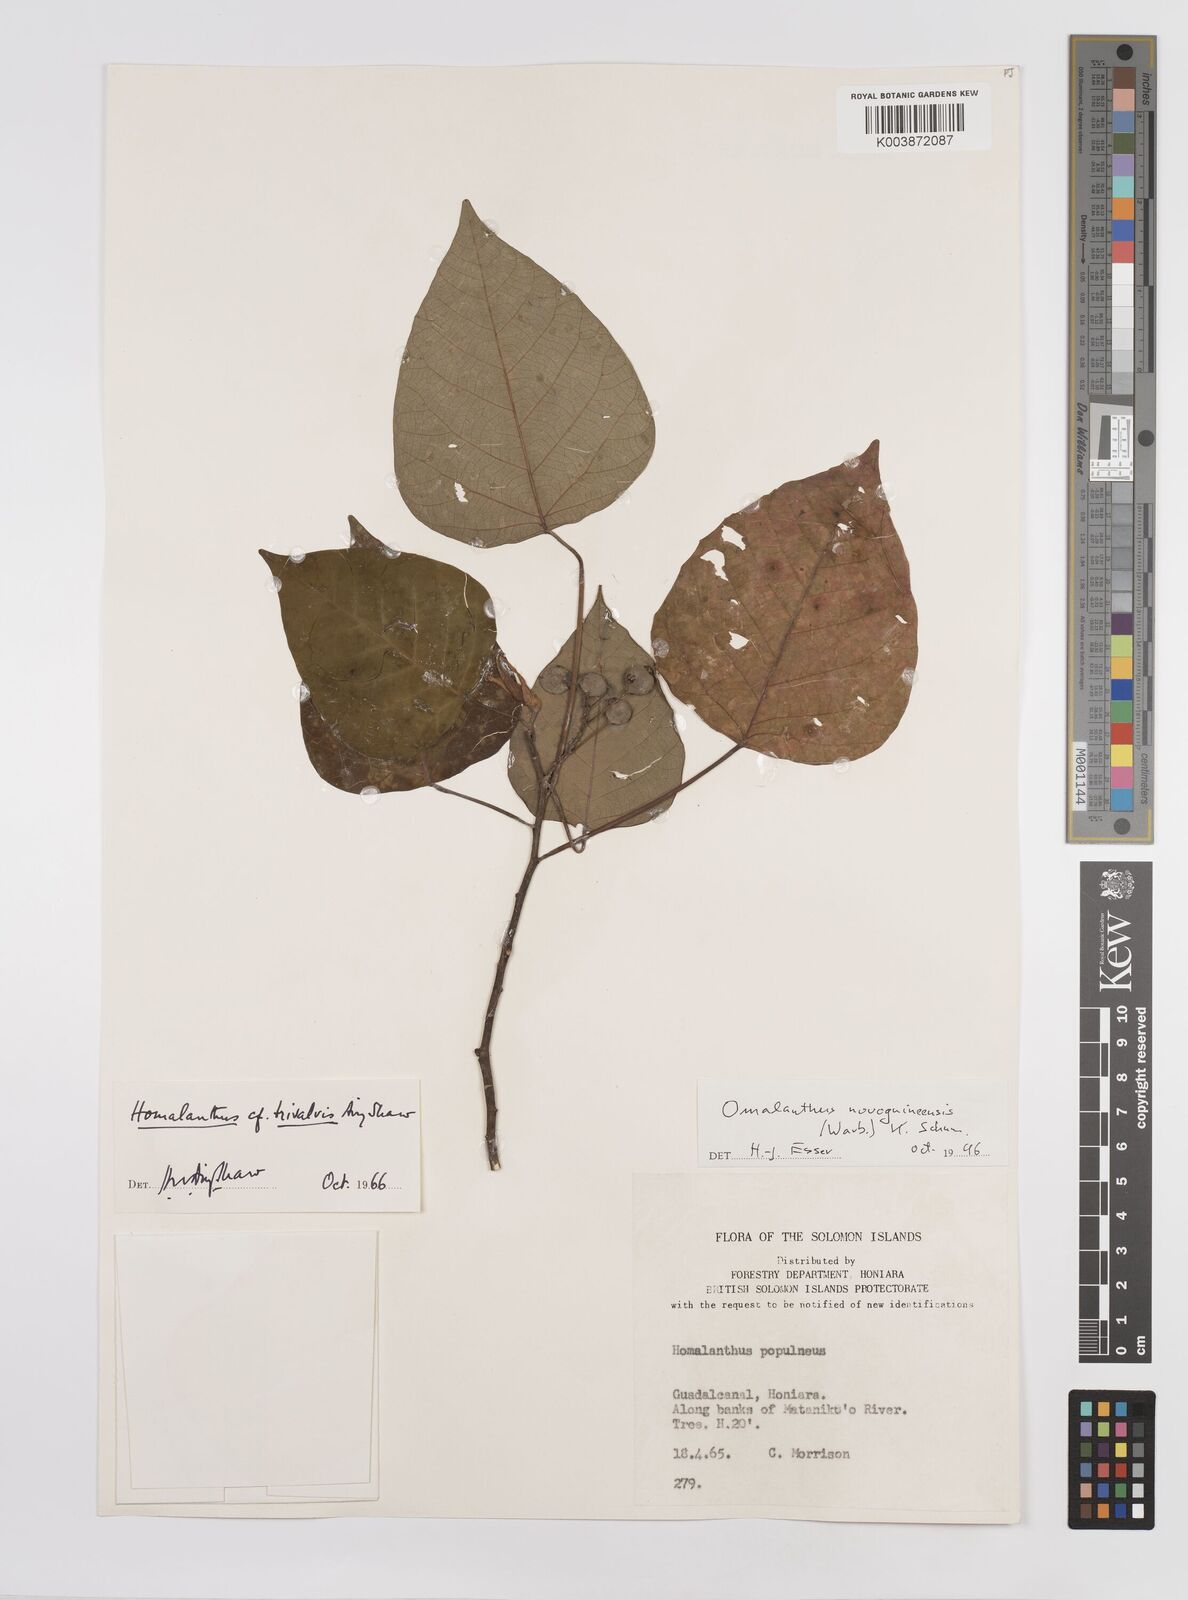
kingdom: Plantae
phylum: Tracheophyta
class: Magnoliopsida
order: Malpighiales
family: Euphorbiaceae
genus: Homalanthus
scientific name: Homalanthus novoguineensis
